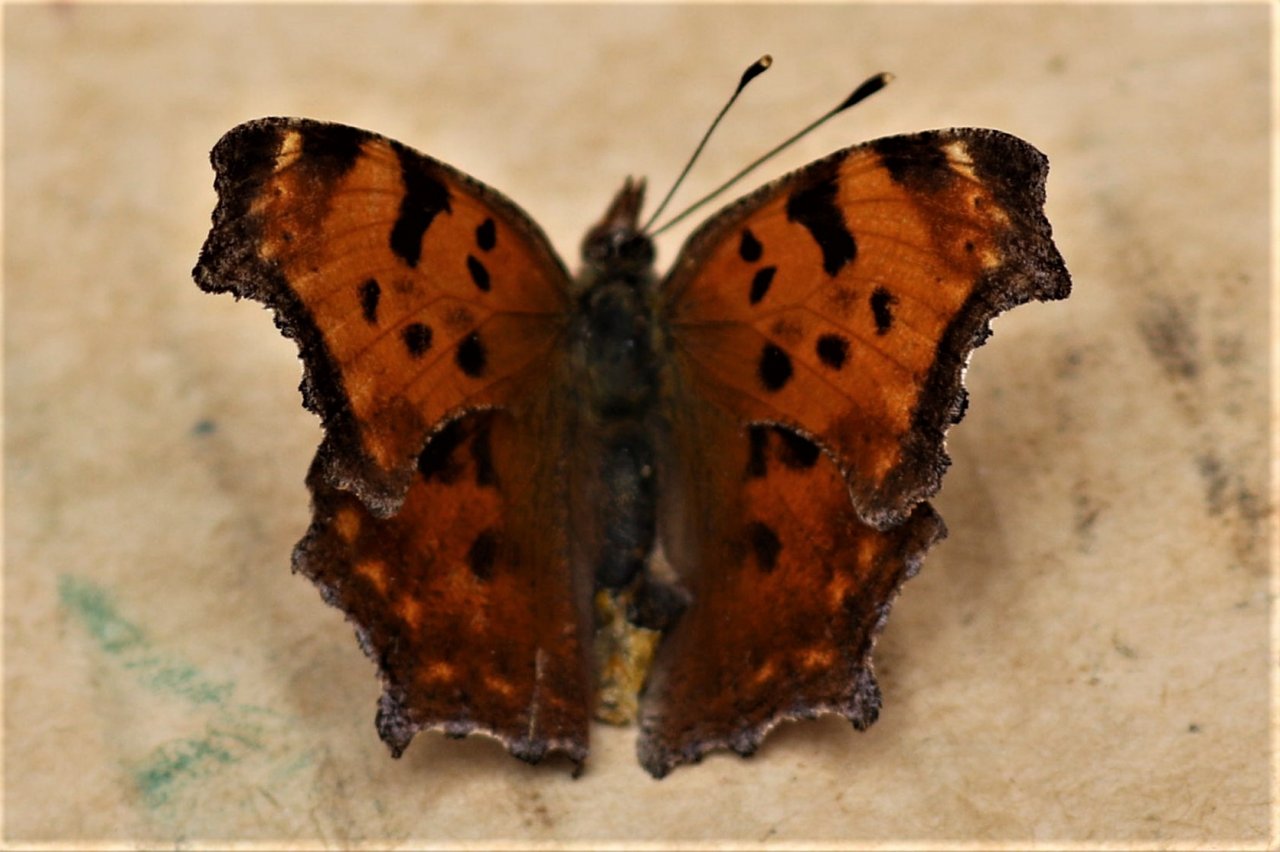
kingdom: Animalia
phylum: Arthropoda
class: Insecta
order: Lepidoptera
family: Nymphalidae
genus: Polygonia
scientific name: Polygonia comma
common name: Eastern Comma
